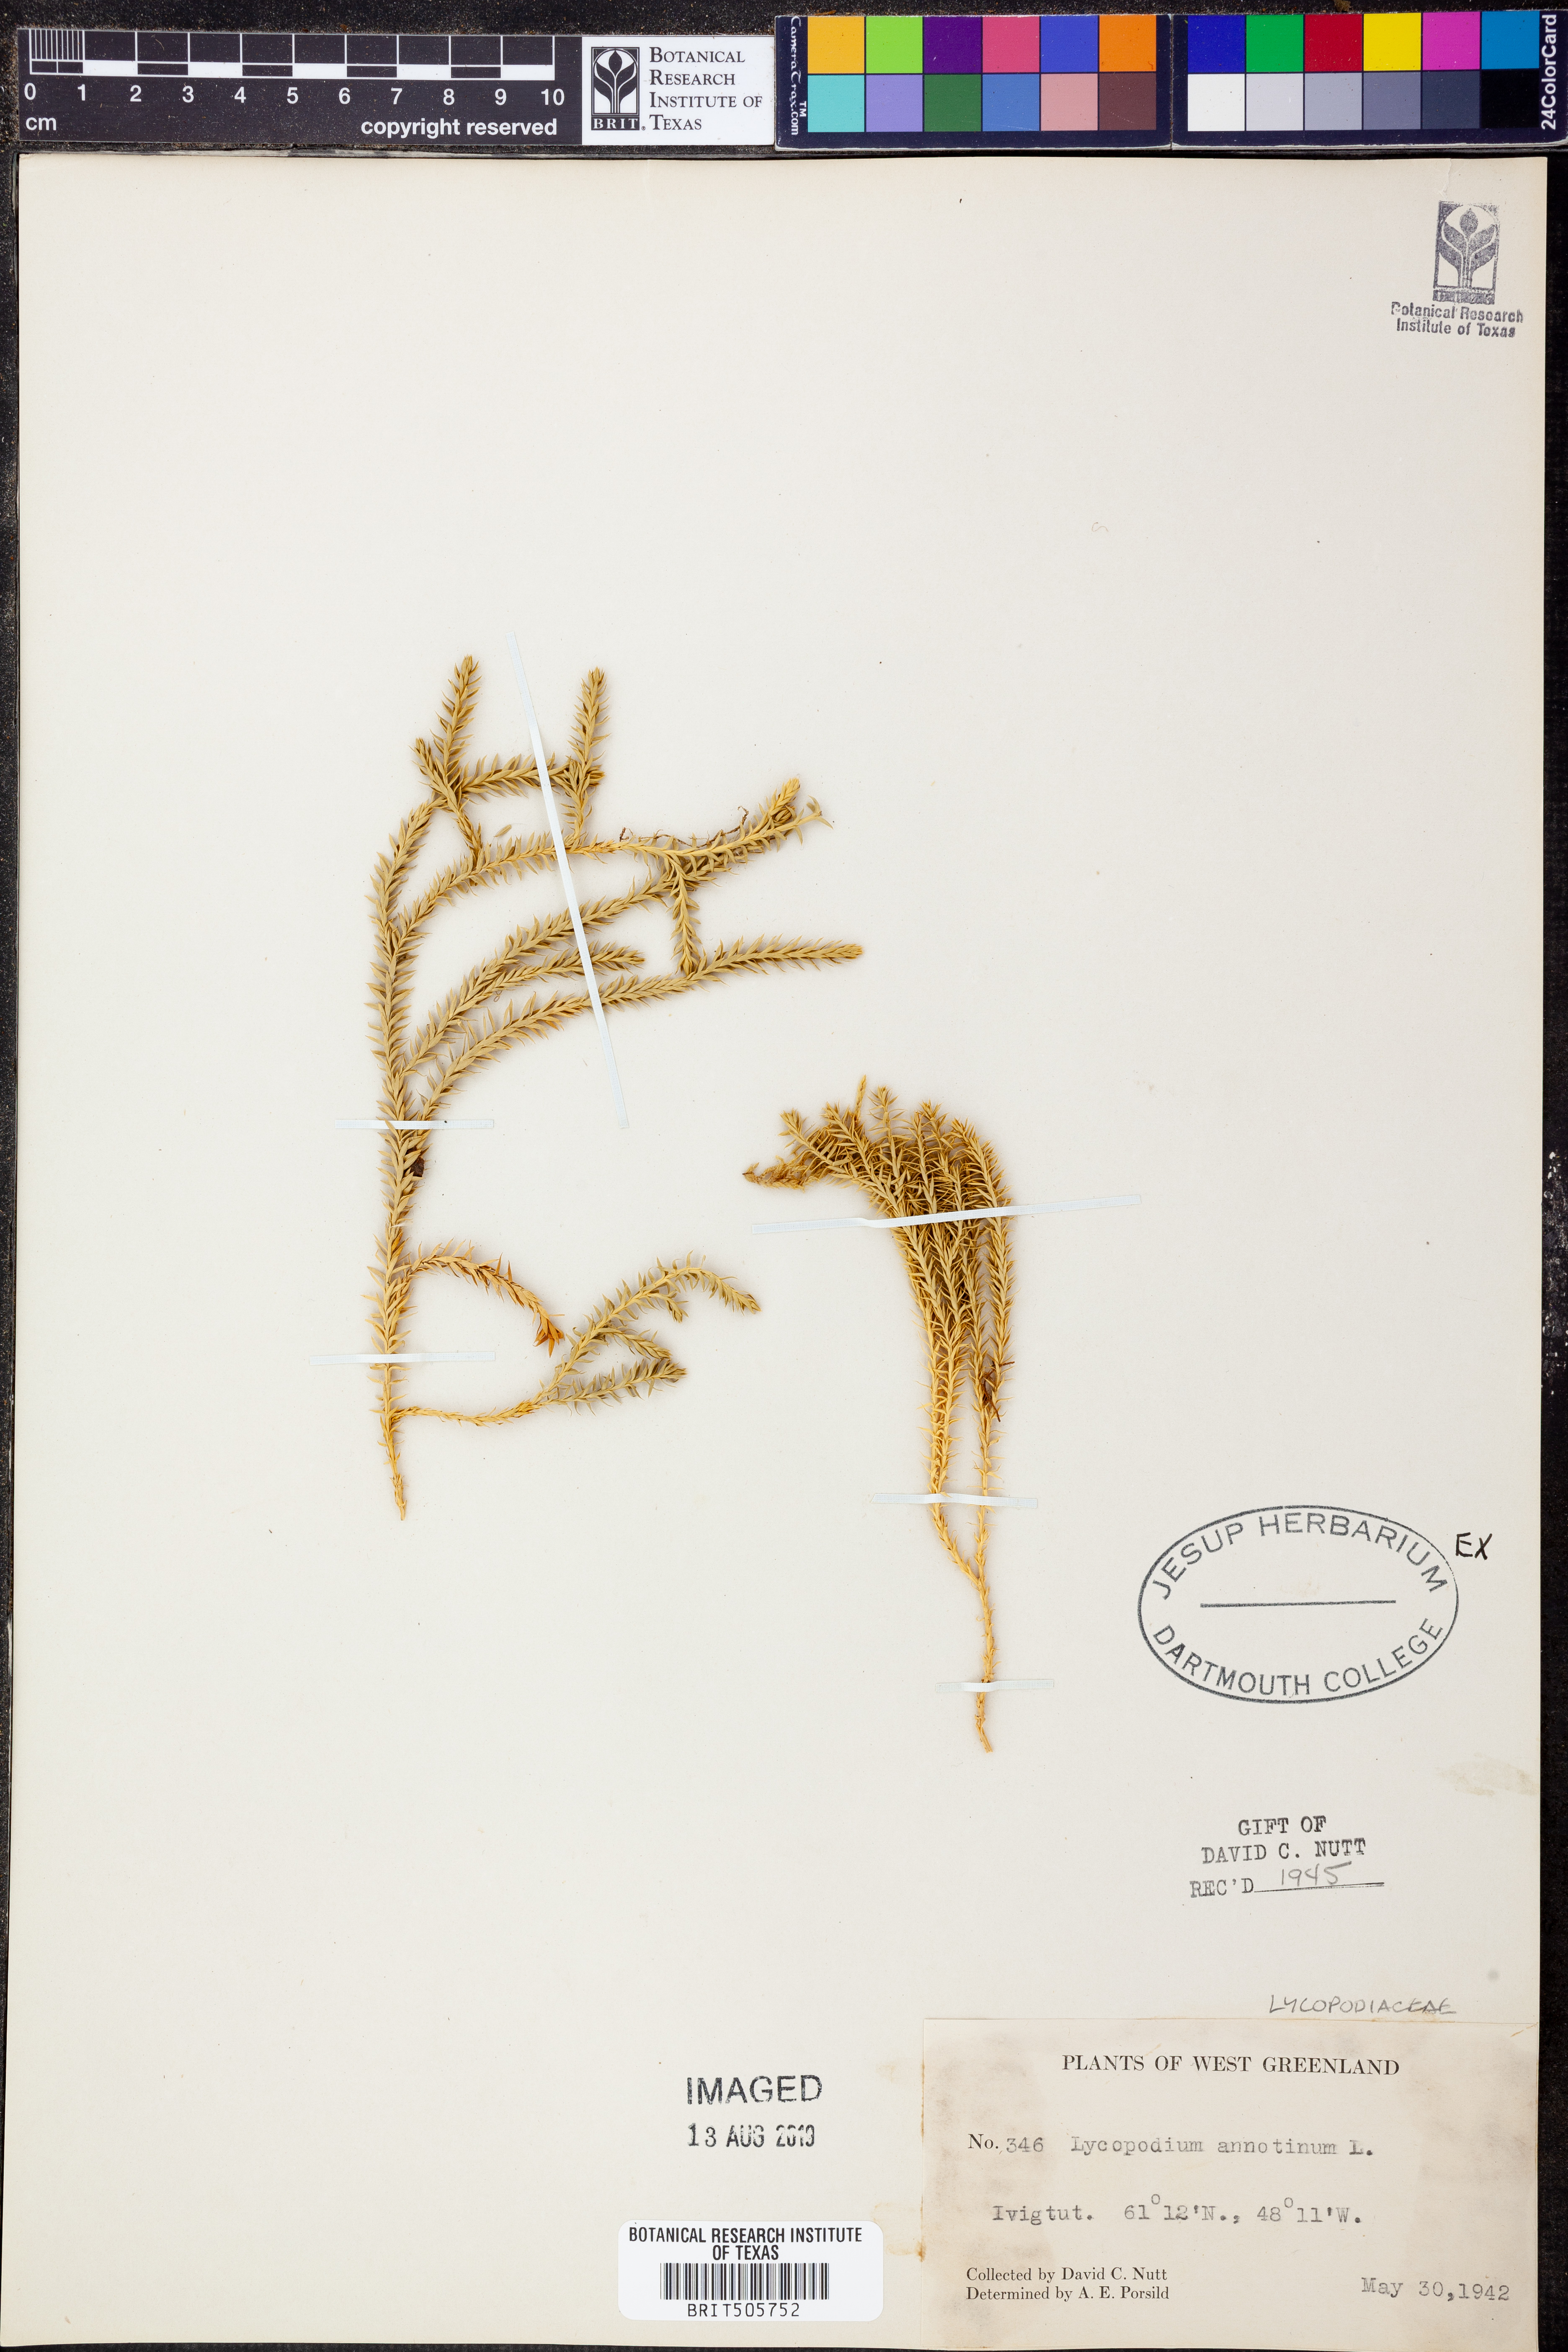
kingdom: Plantae
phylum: Tracheophyta
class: Lycopodiopsida
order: Lycopodiales
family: Lycopodiaceae
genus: Spinulum
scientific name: Spinulum annotinum
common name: Interrupted club-moss
